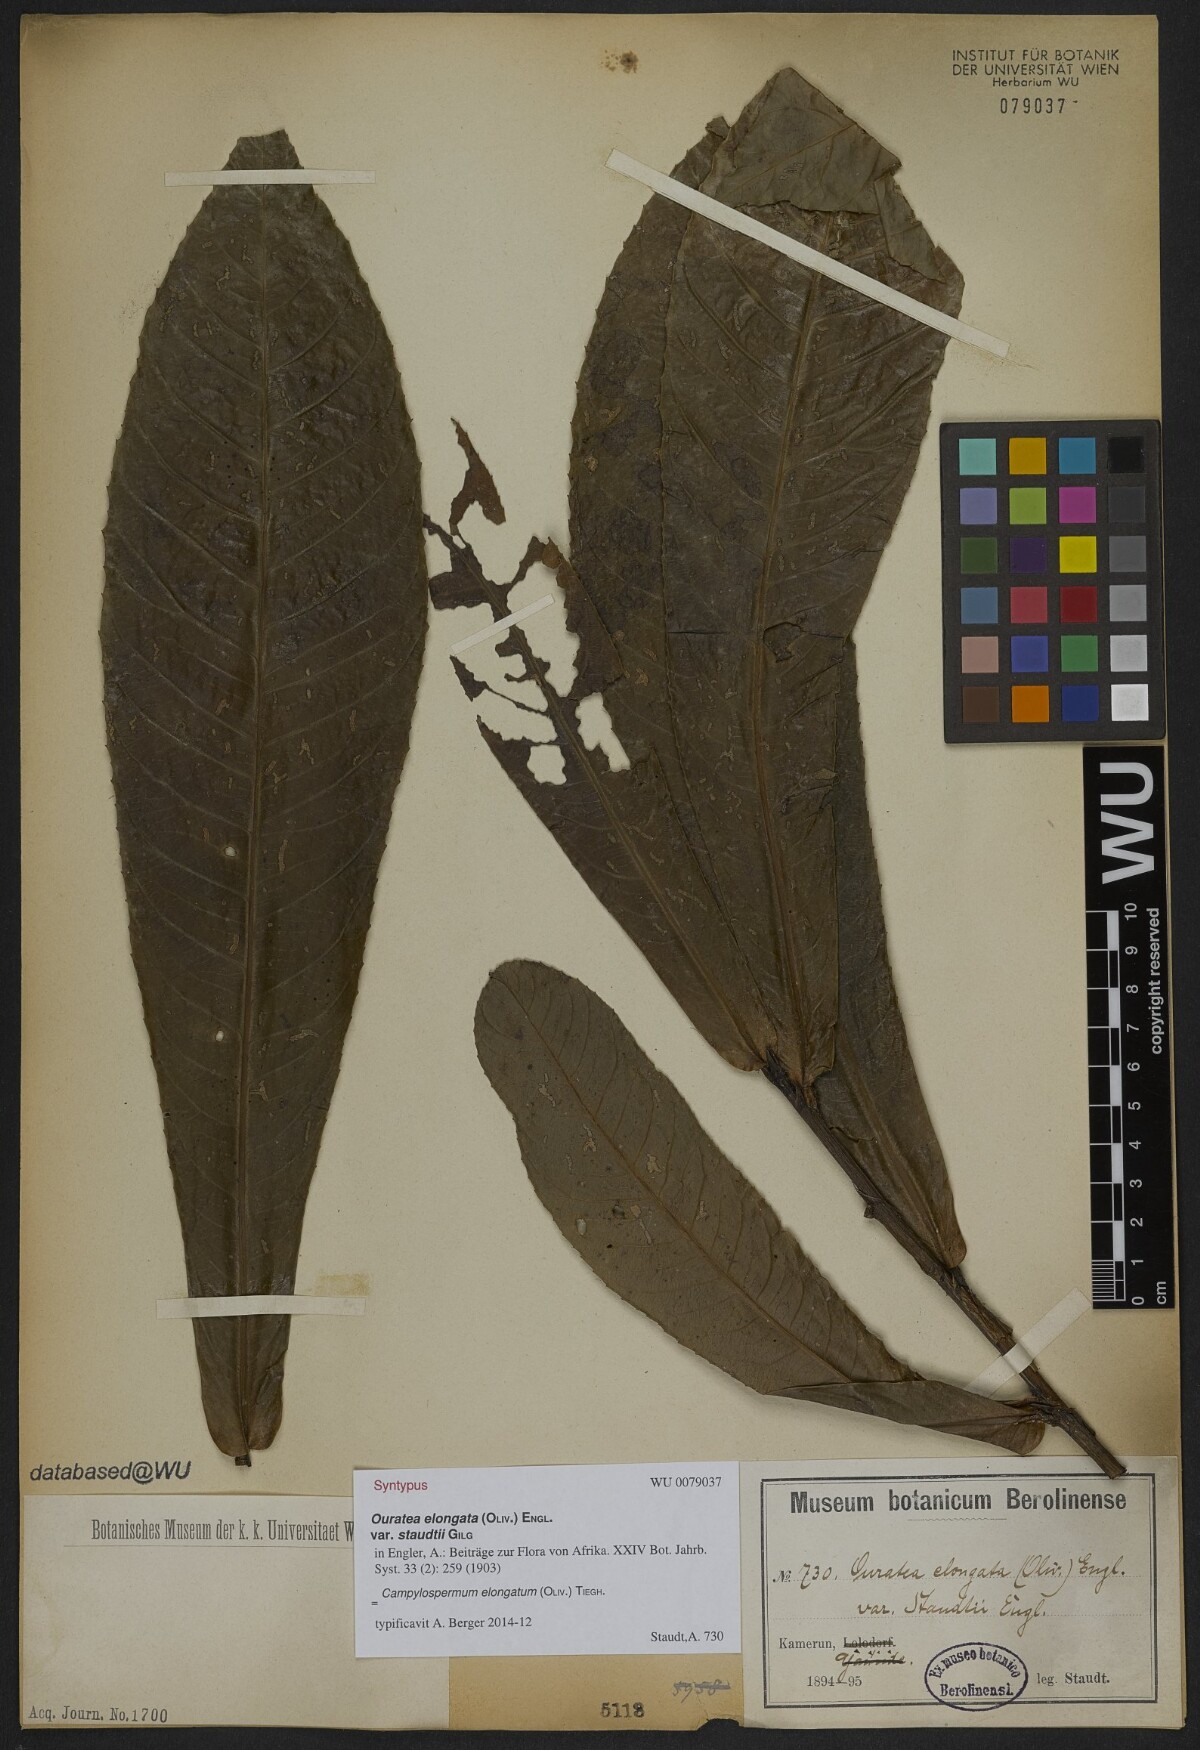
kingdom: Plantae
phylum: Tracheophyta
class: Magnoliopsida
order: Malpighiales
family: Ochnaceae
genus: Gomphia
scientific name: Gomphia elongata
